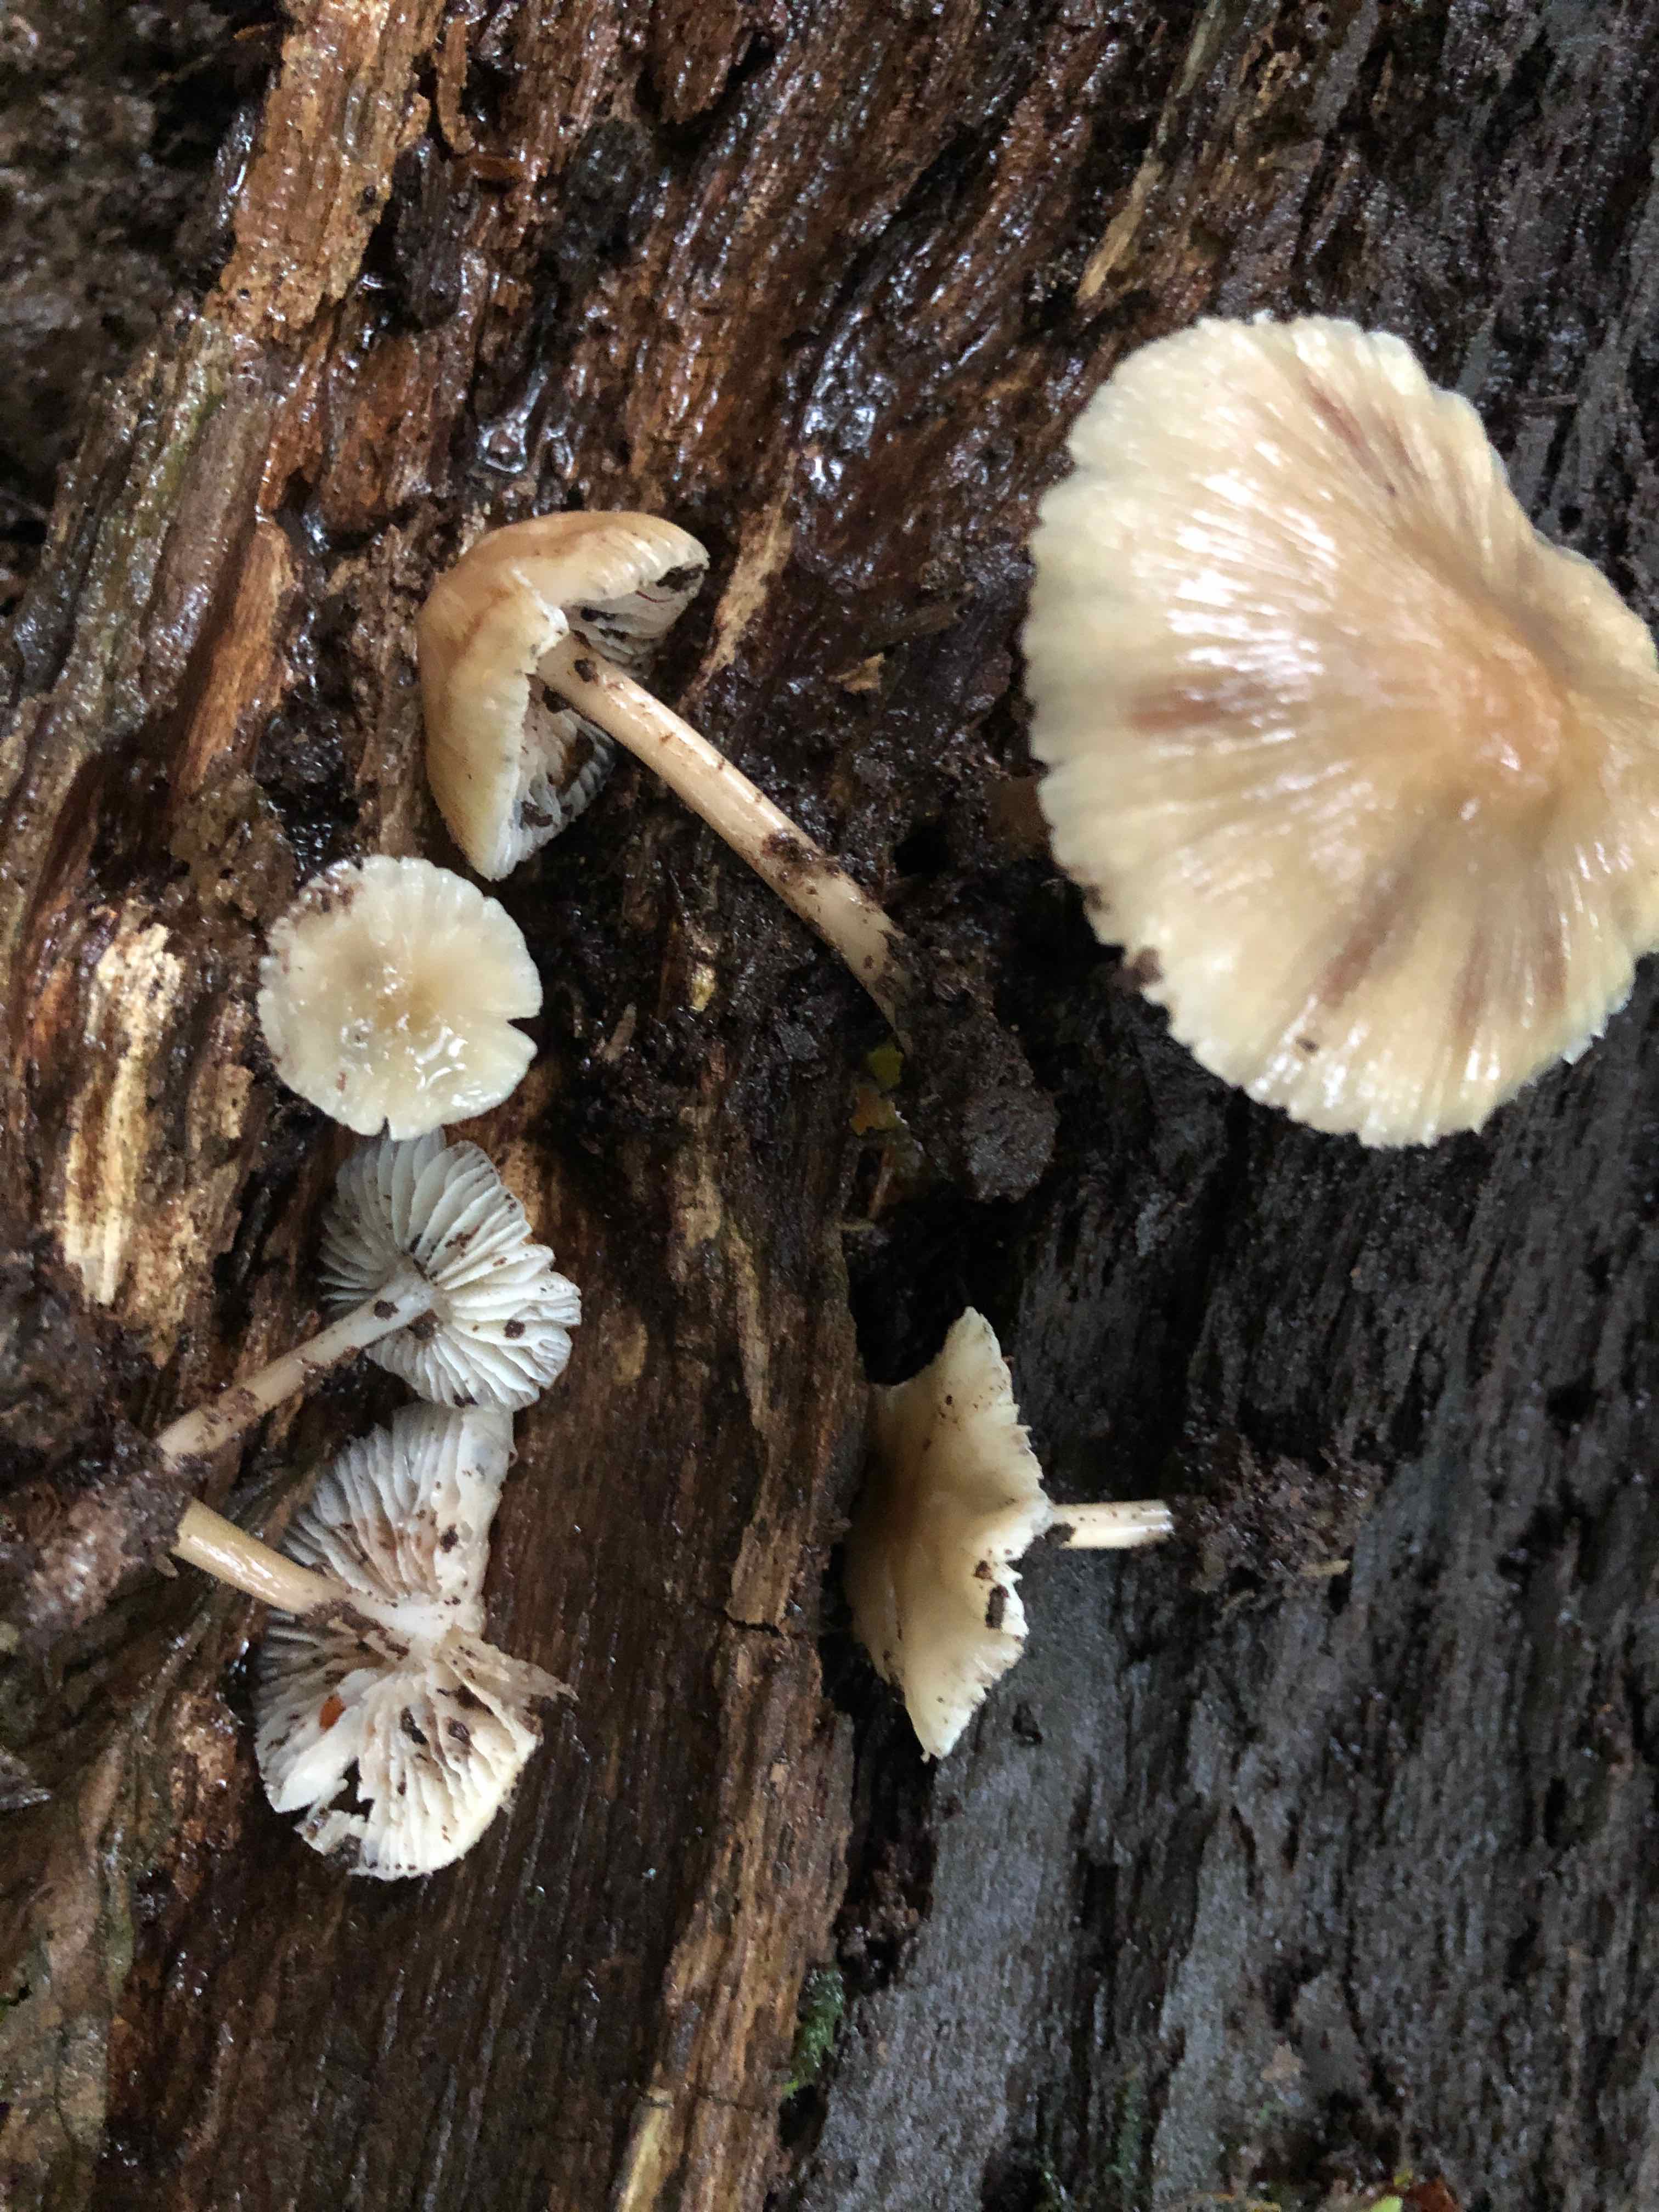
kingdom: Fungi
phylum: Basidiomycota
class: Agaricomycetes
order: Agaricales
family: Mycenaceae
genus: Mycena
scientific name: Mycena galericulata
